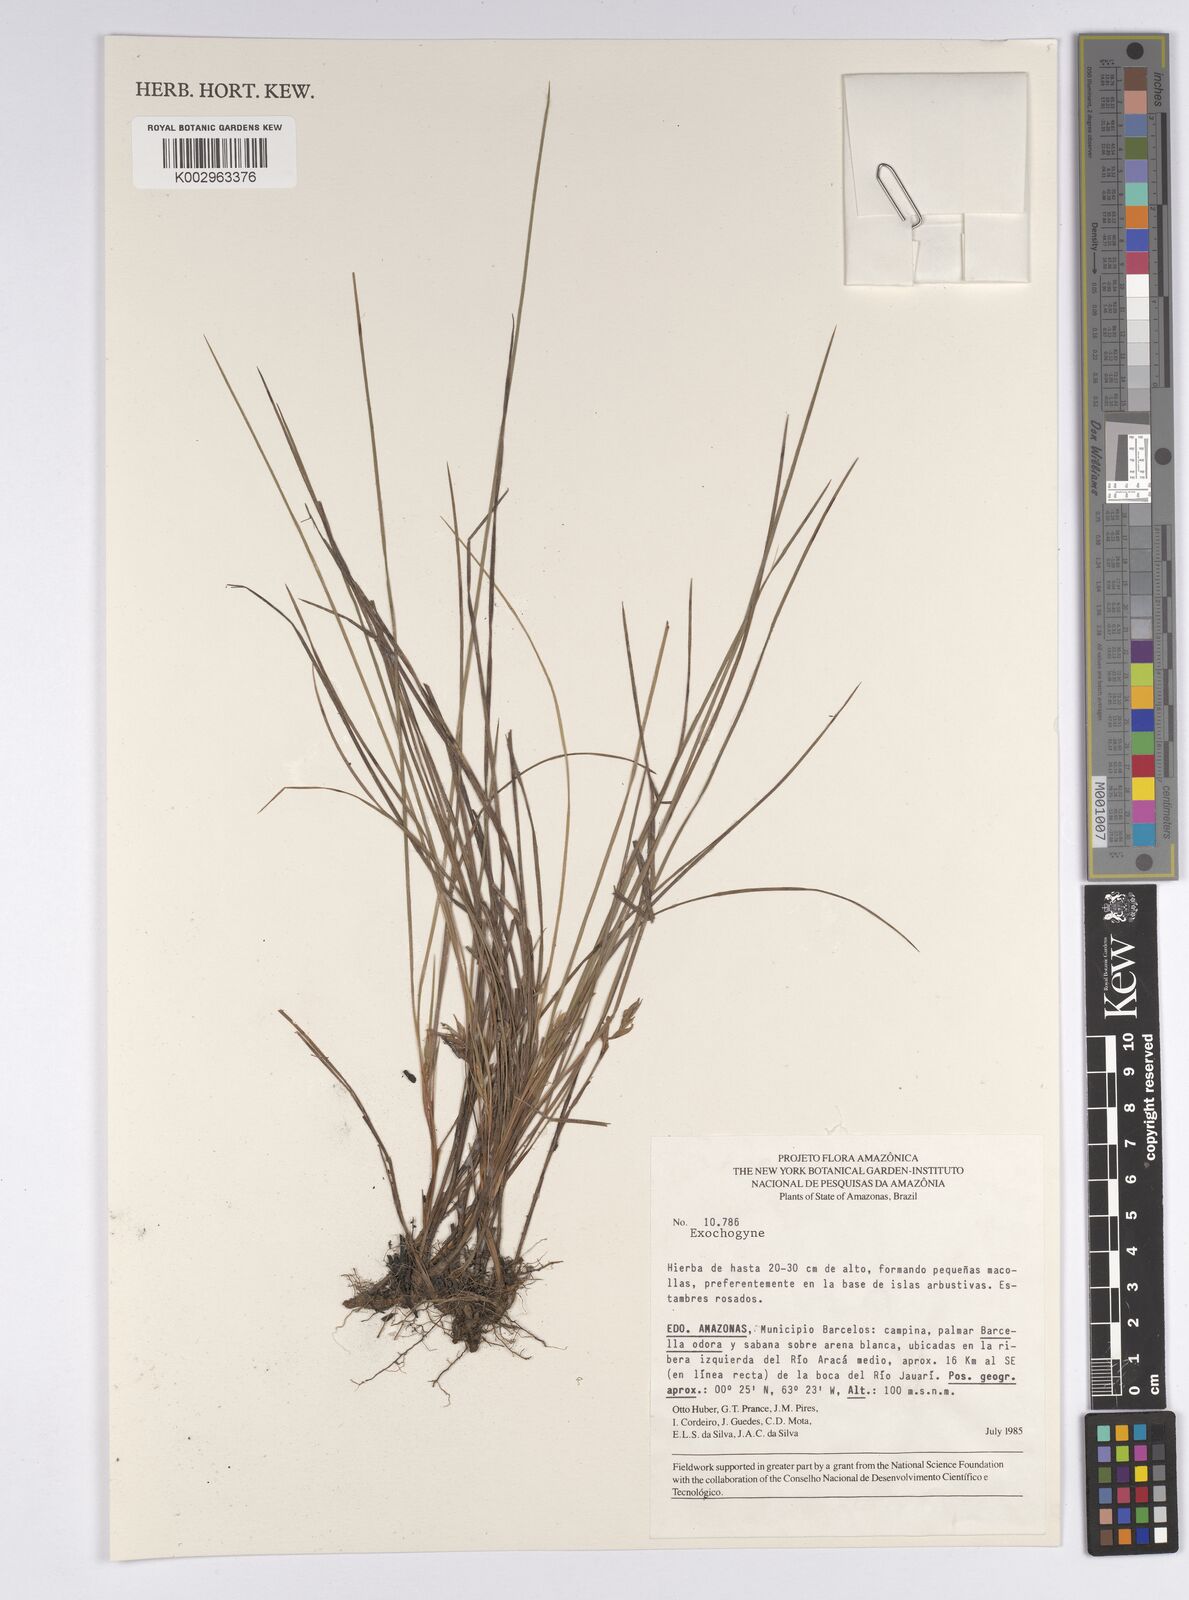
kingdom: Plantae
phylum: Tracheophyta
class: Liliopsida
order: Poales
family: Cyperaceae
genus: Exochogyne
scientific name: Exochogyne
